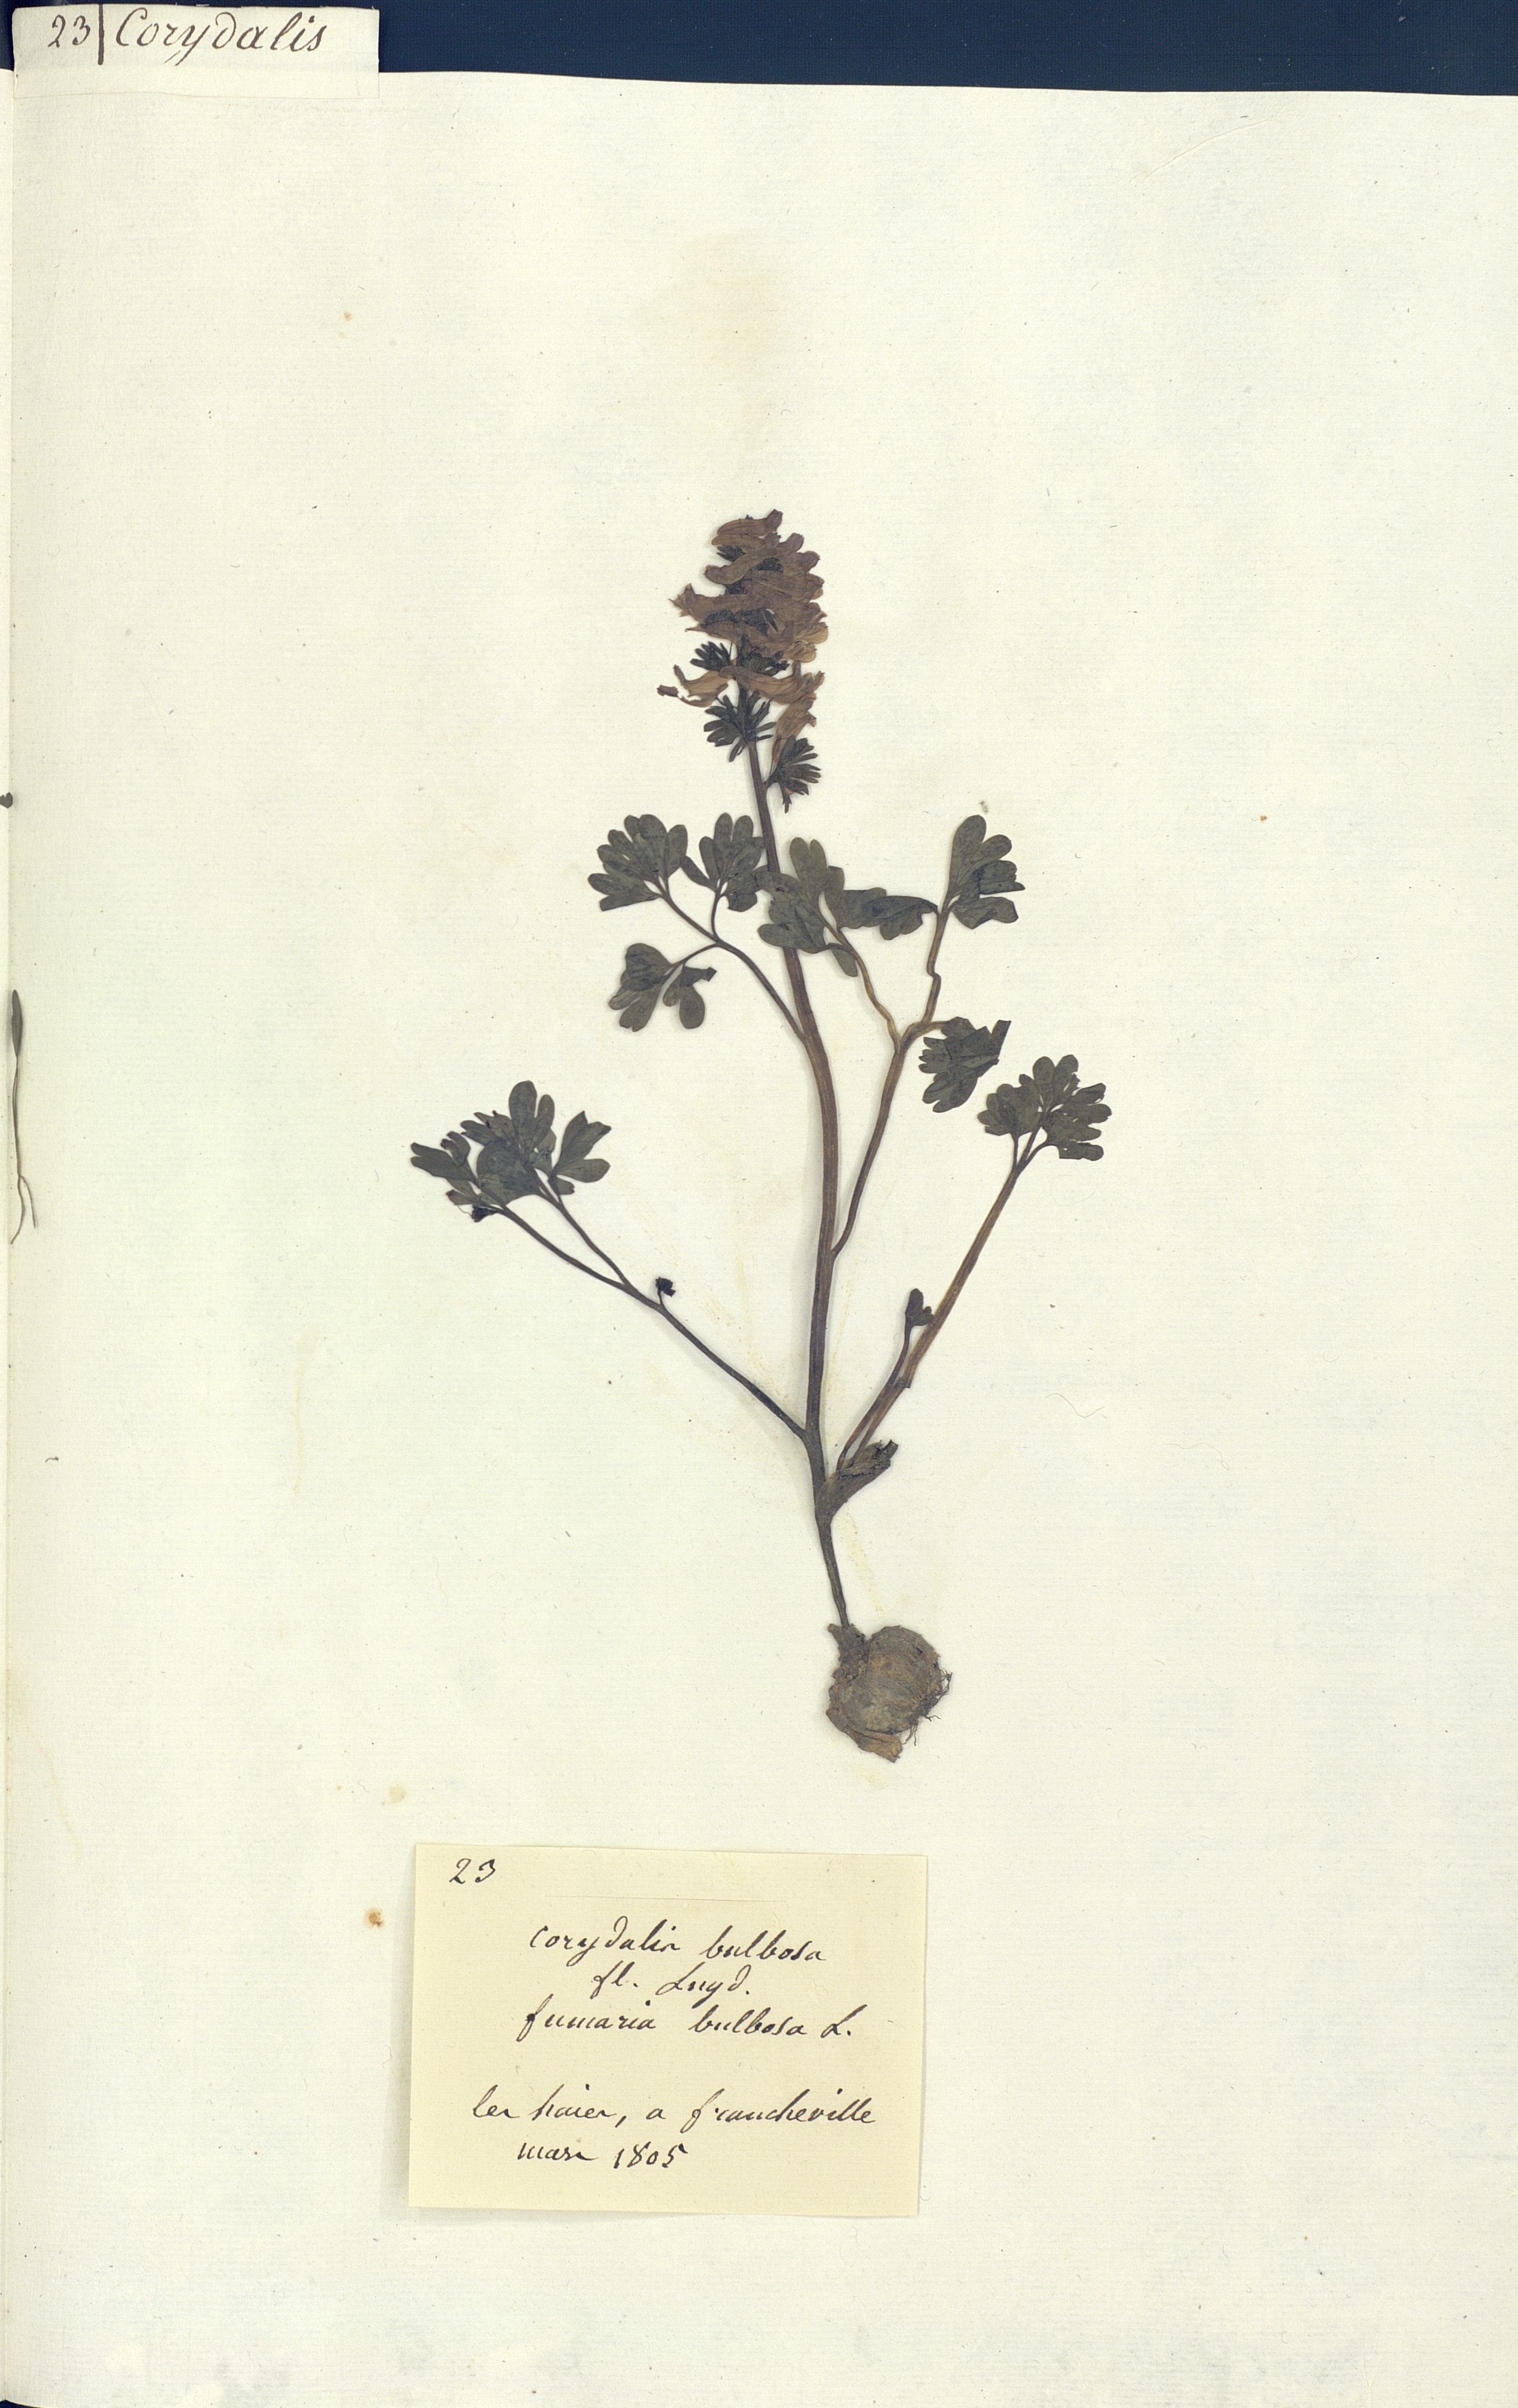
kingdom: Plantae
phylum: Tracheophyta
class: Magnoliopsida
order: Ranunculales
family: Papaveraceae
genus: Corydalis
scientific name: Corydalis bulbosa
